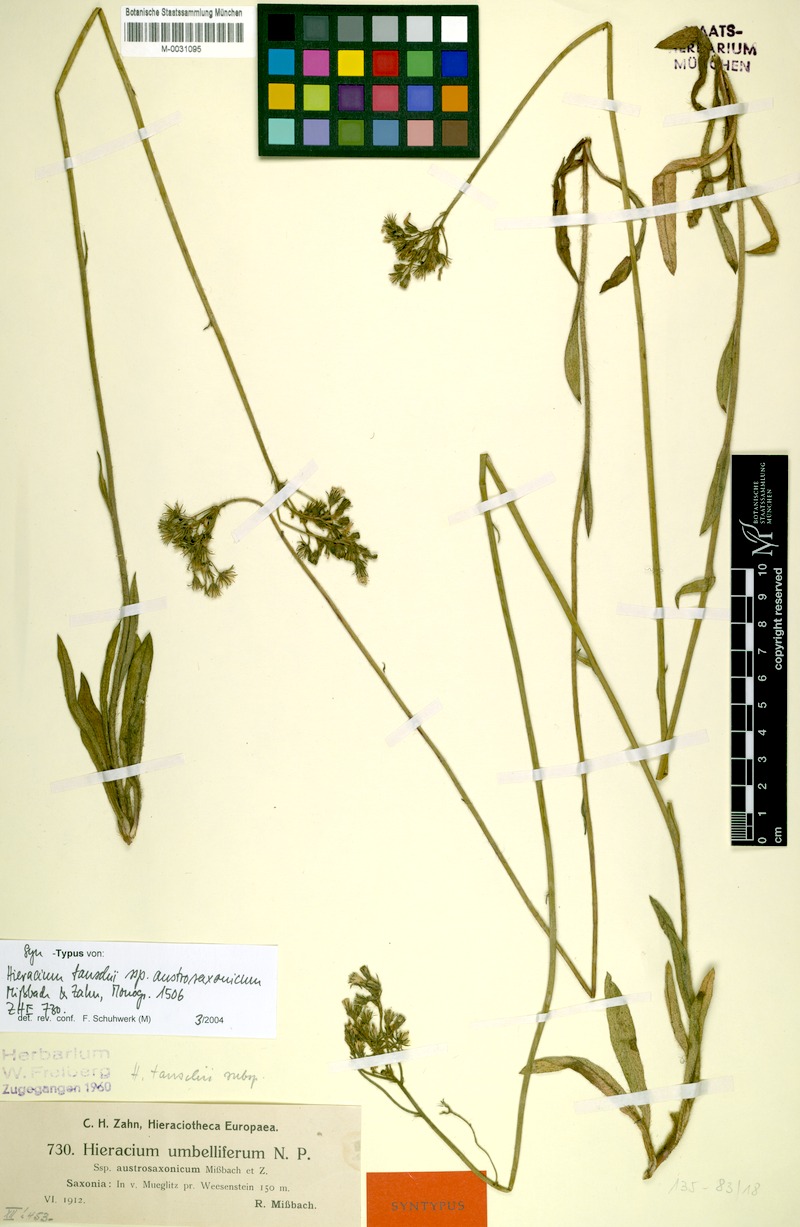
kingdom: Plantae
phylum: Tracheophyta
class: Magnoliopsida
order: Asterales
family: Asteraceae
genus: Pilosella
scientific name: Pilosella densiflora
